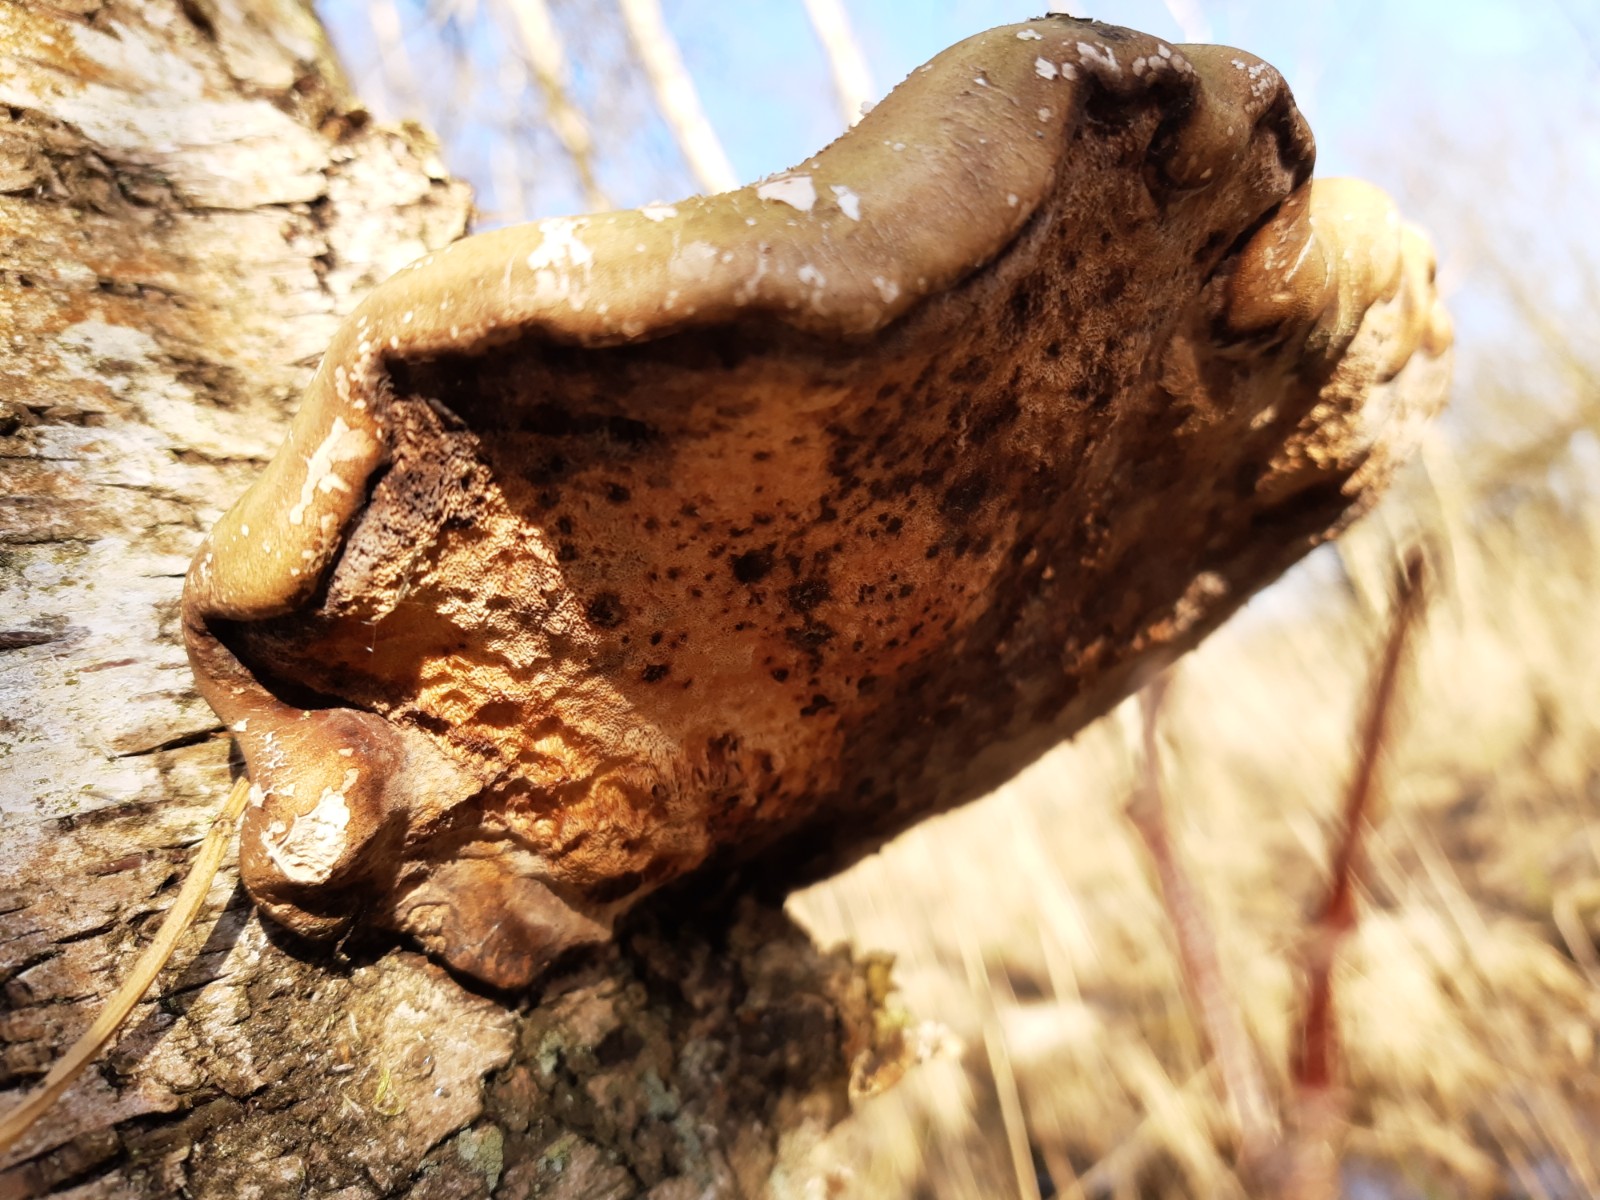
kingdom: Fungi
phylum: Basidiomycota
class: Agaricomycetes
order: Polyporales
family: Fomitopsidaceae
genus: Fomitopsis
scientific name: Fomitopsis betulina
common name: birkeporesvamp
